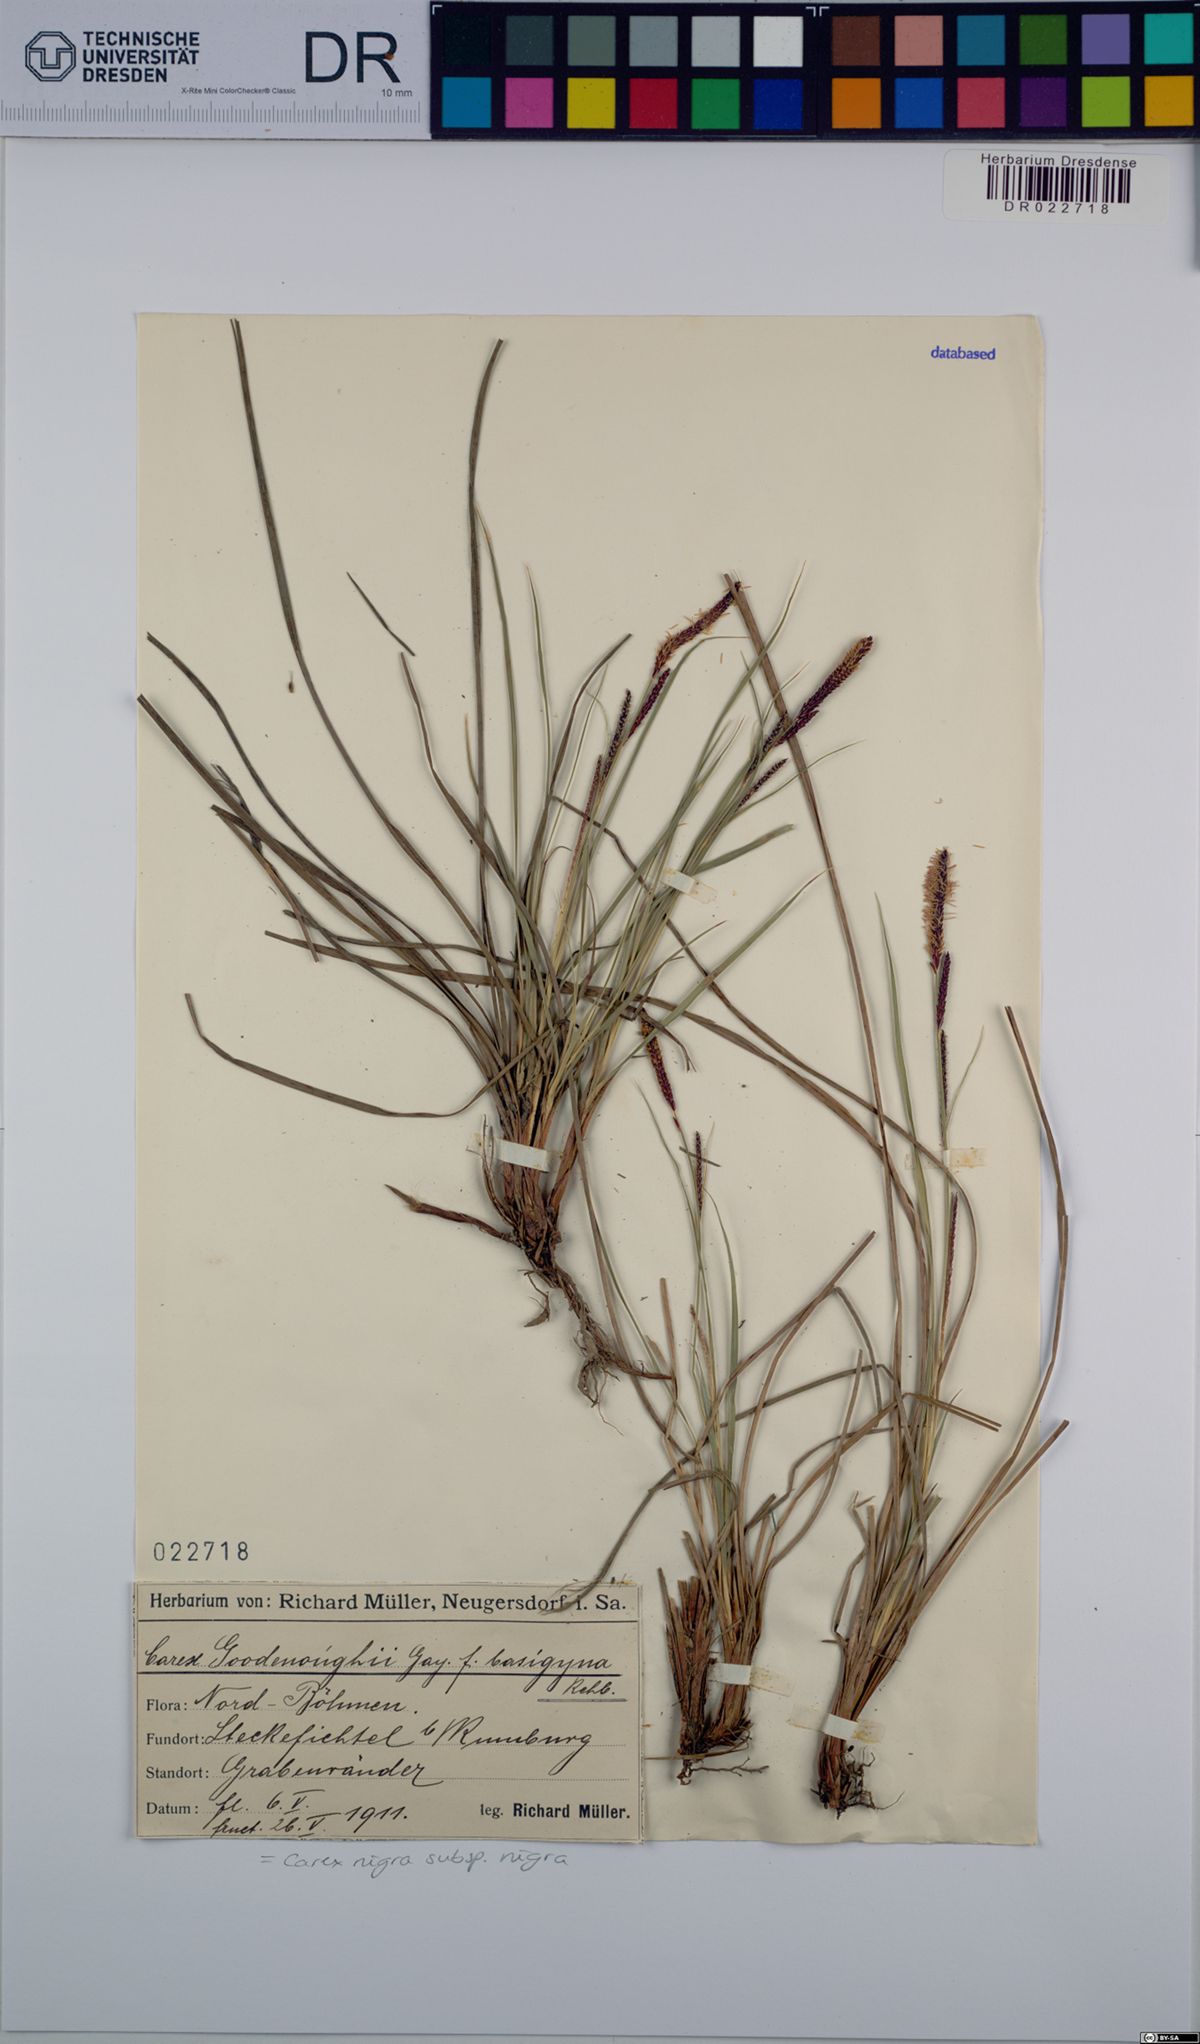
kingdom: Plantae
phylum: Tracheophyta
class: Liliopsida
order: Poales
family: Cyperaceae
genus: Carex
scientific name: Carex nigra
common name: Common sedge
